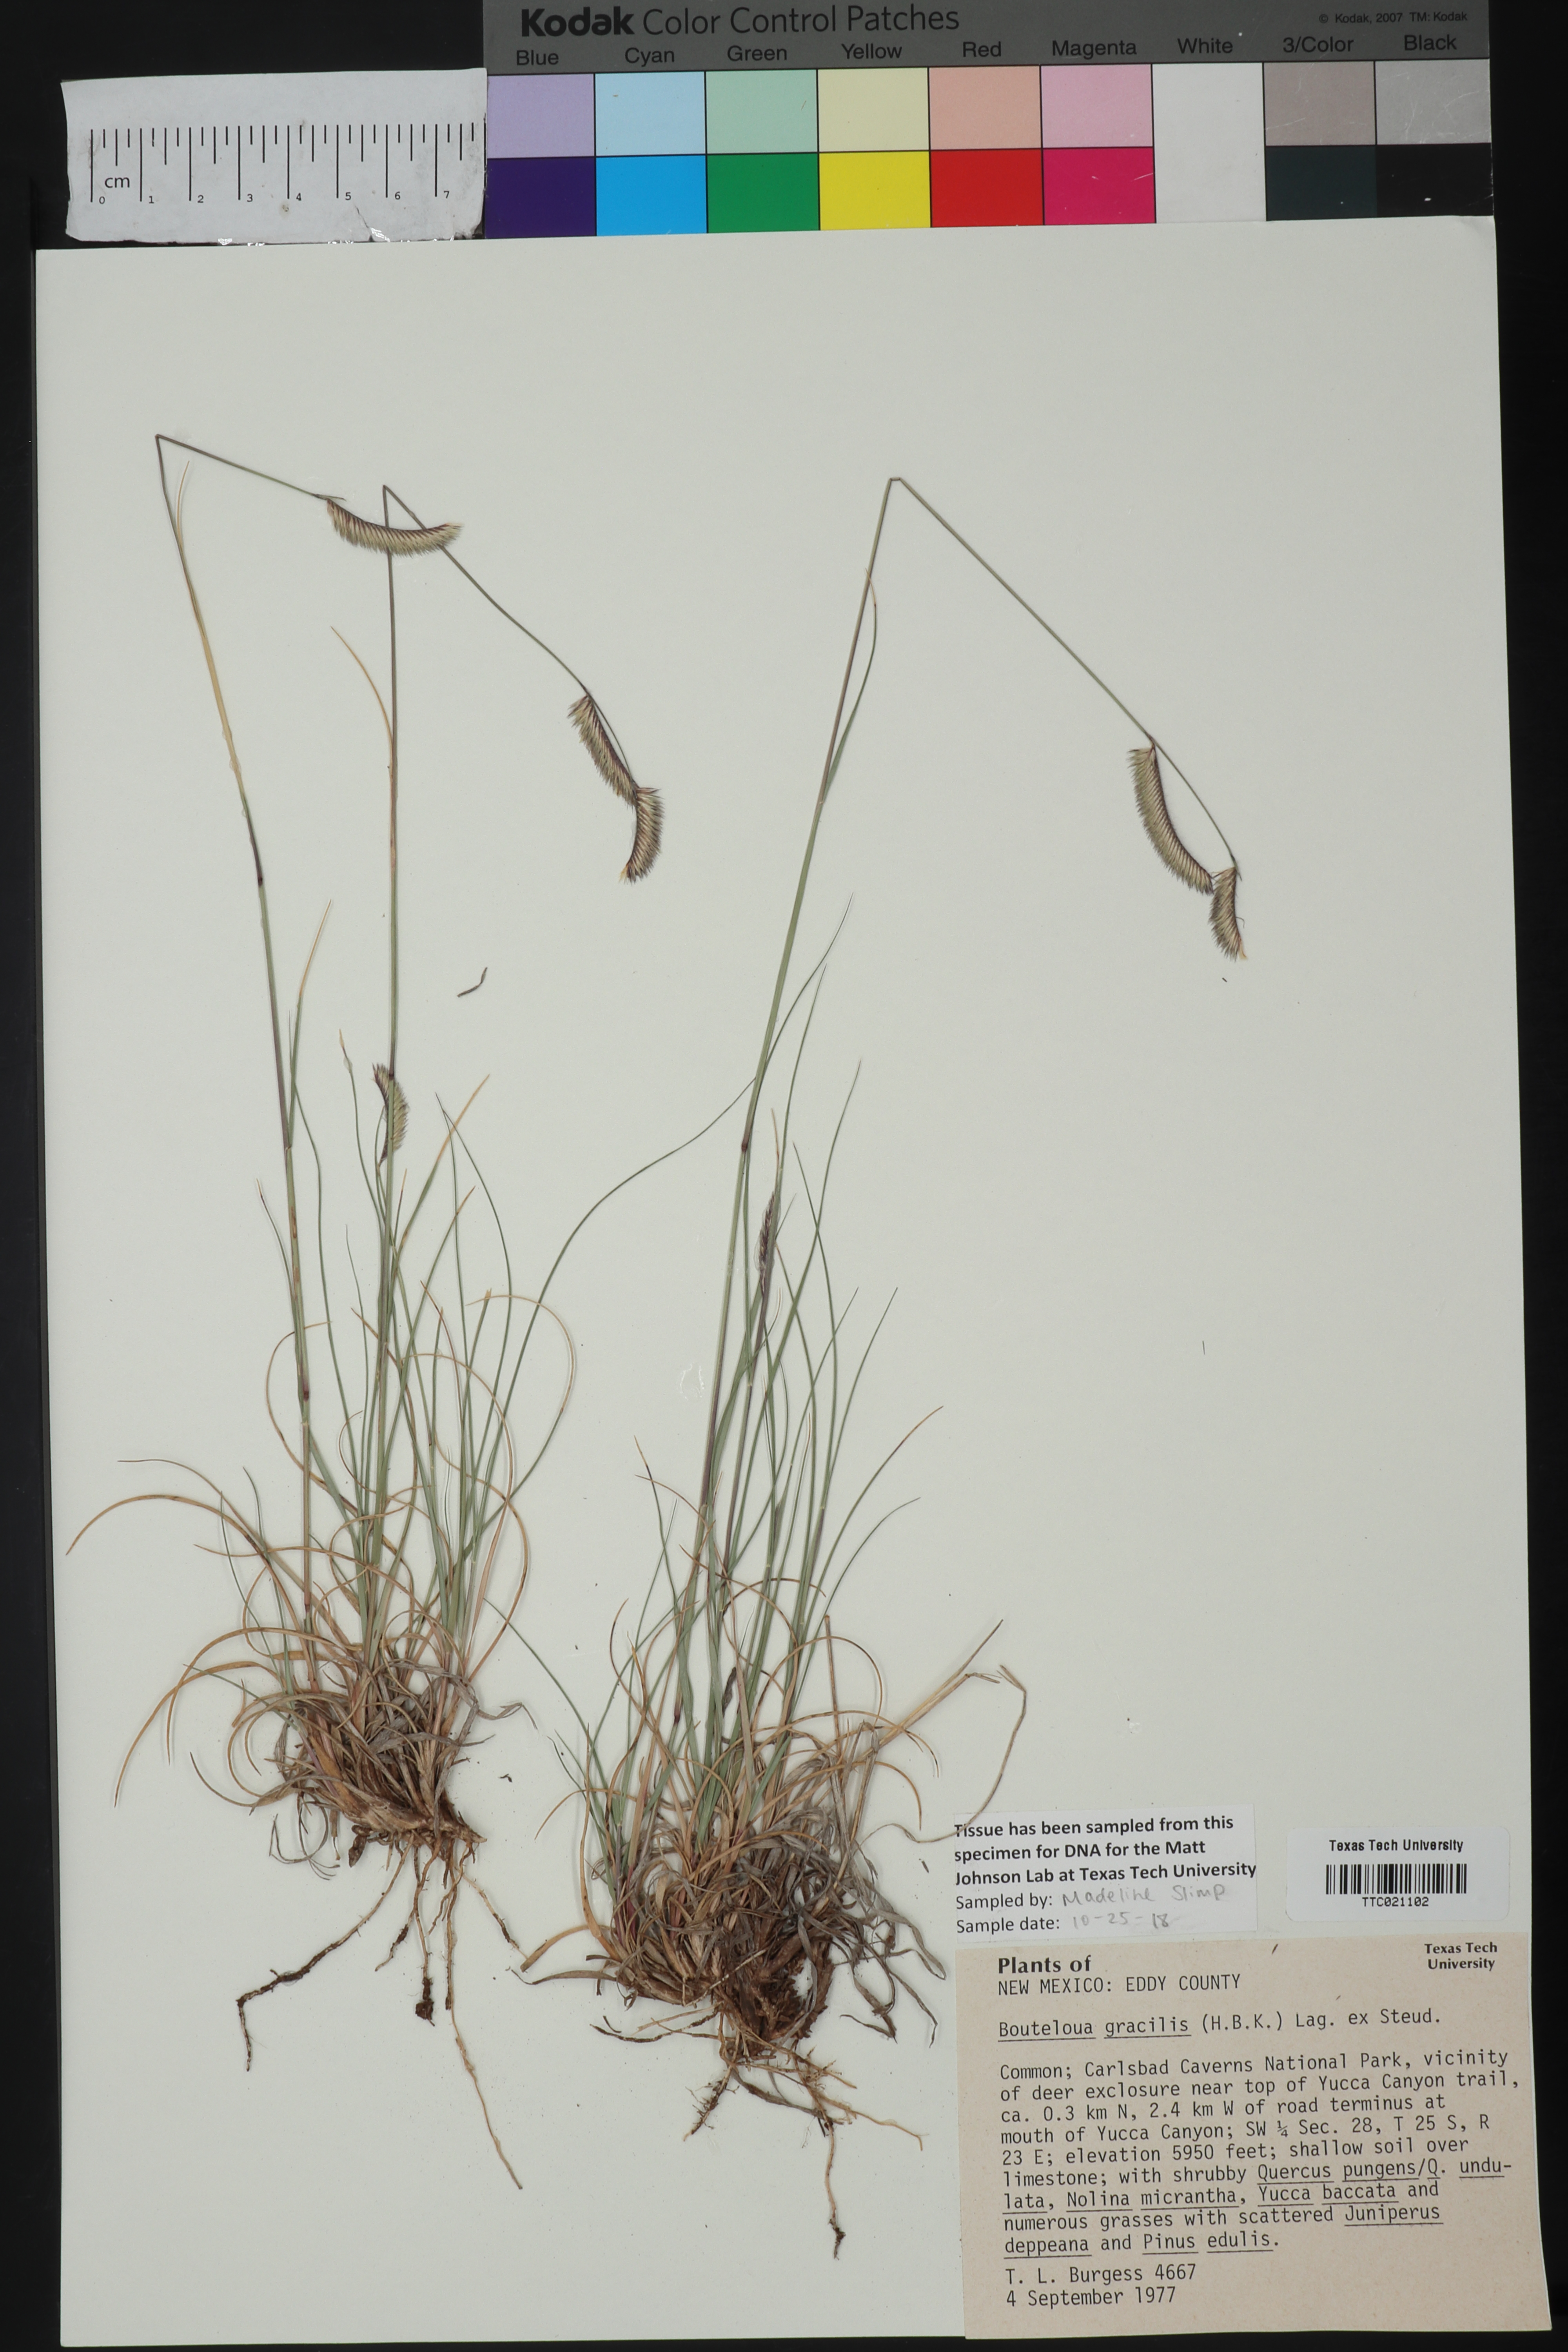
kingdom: Plantae
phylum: Tracheophyta
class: Liliopsida
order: Poales
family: Poaceae
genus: Bouteloua
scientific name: Bouteloua gracilis
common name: Blue grama
